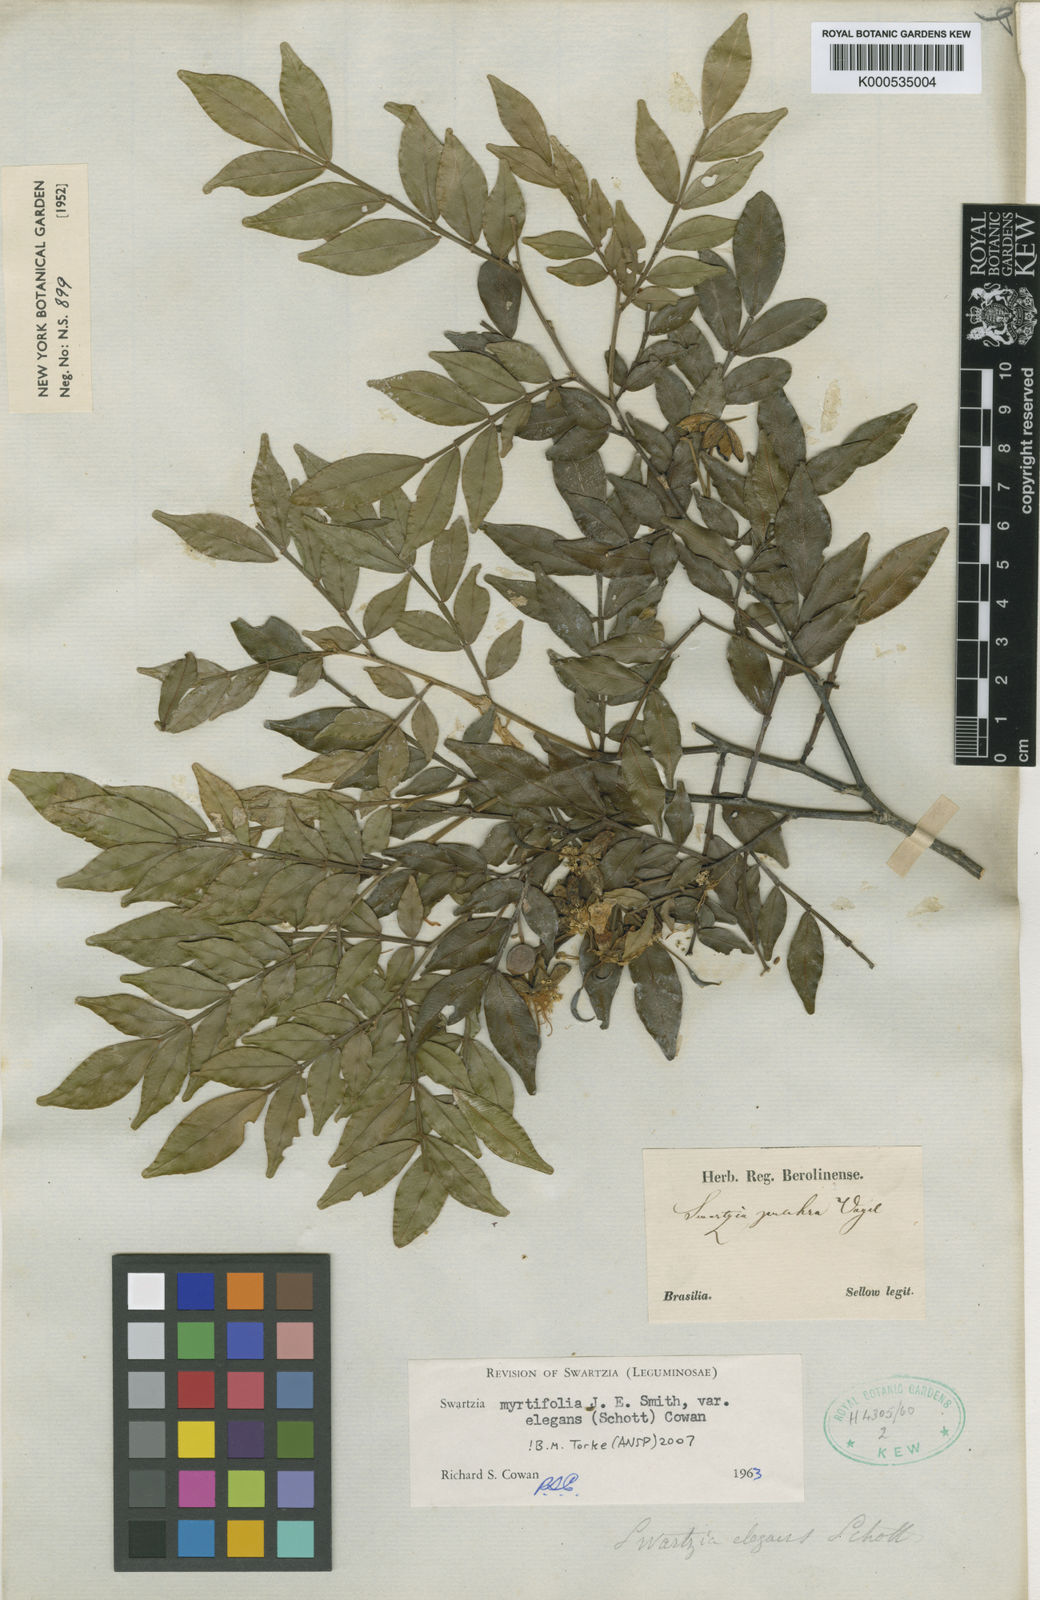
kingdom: Plantae
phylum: Tracheophyta
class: Magnoliopsida
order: Fabales
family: Fabaceae
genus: Swartzia
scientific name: Swartzia myrtifolia
